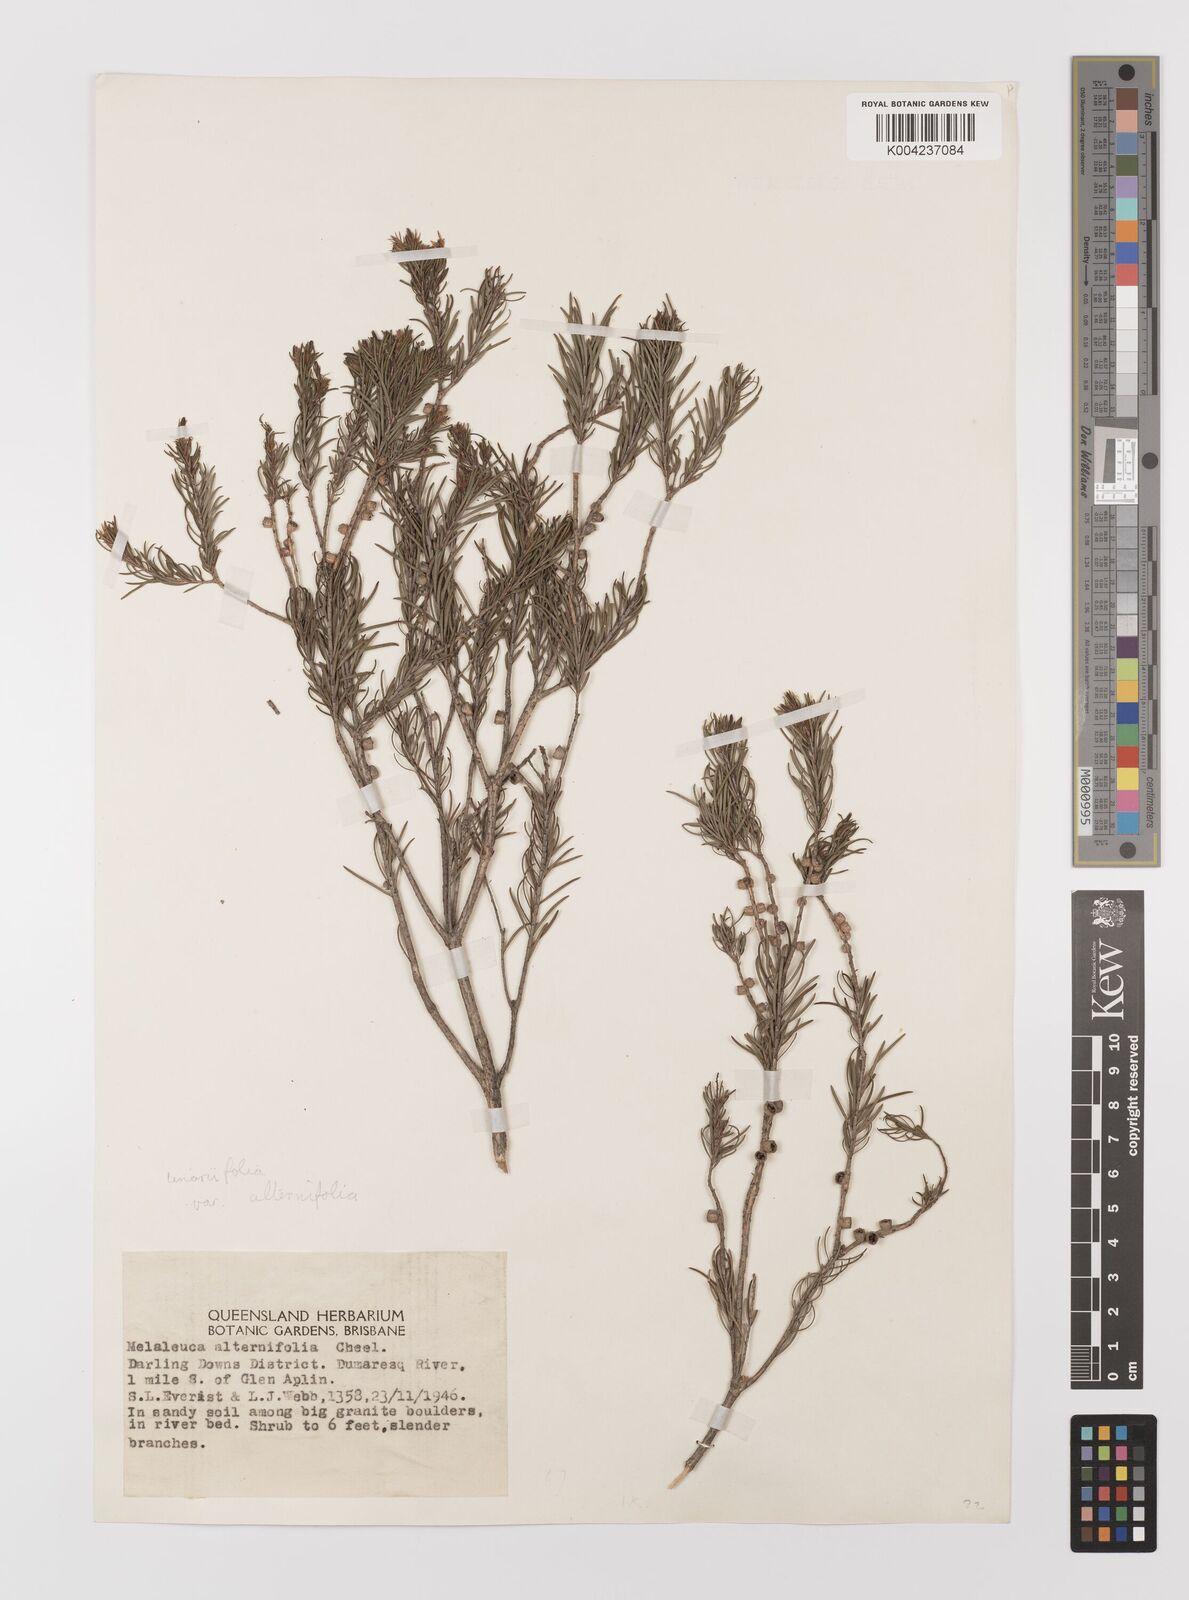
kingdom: Plantae
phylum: Tracheophyta
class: Magnoliopsida
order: Myrtales
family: Myrtaceae
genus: Melaleuca
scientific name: Melaleuca alternifolia
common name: Narrow-leaf paperbark
